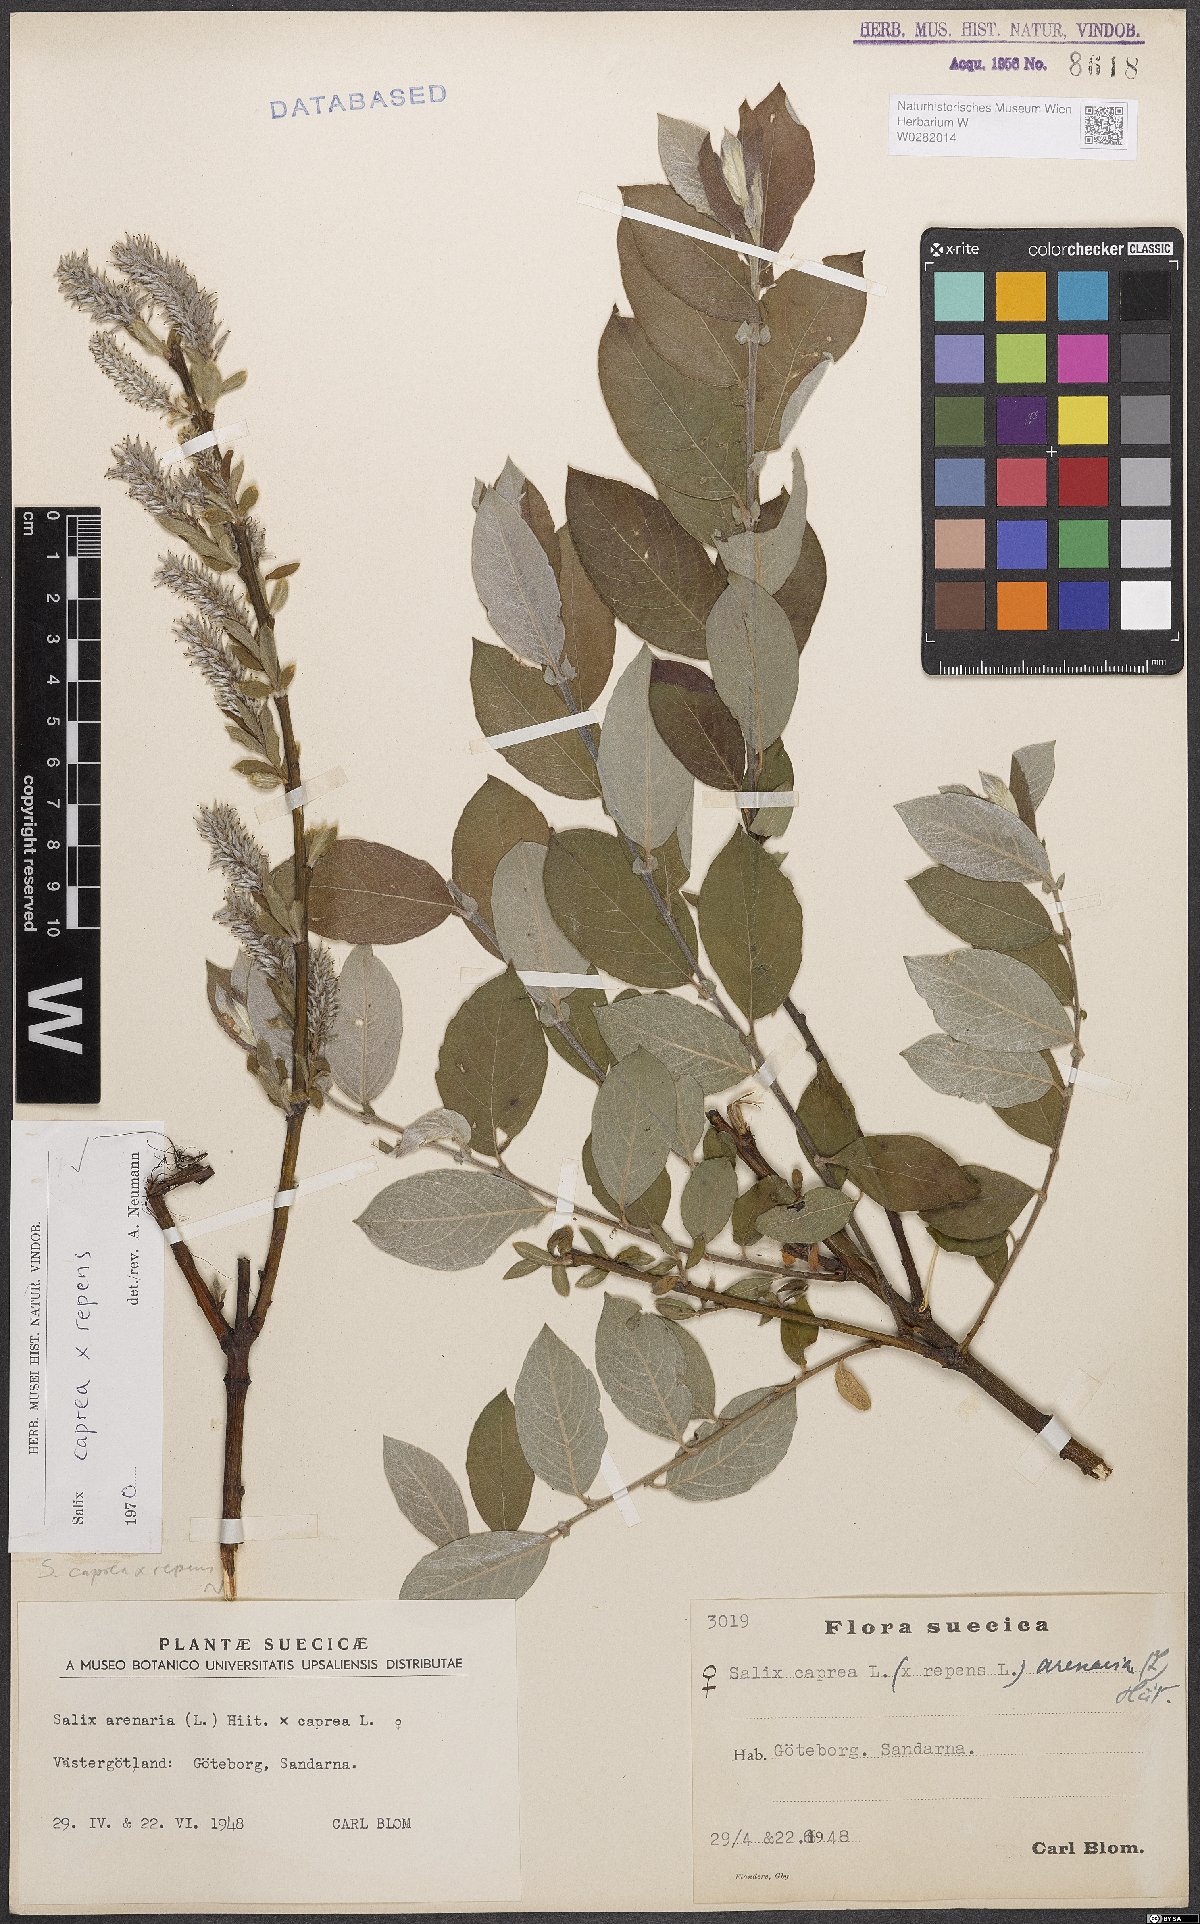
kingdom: Plantae
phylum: Tracheophyta
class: Magnoliopsida
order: Malpighiales
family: Salicaceae
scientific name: Salicaceae
